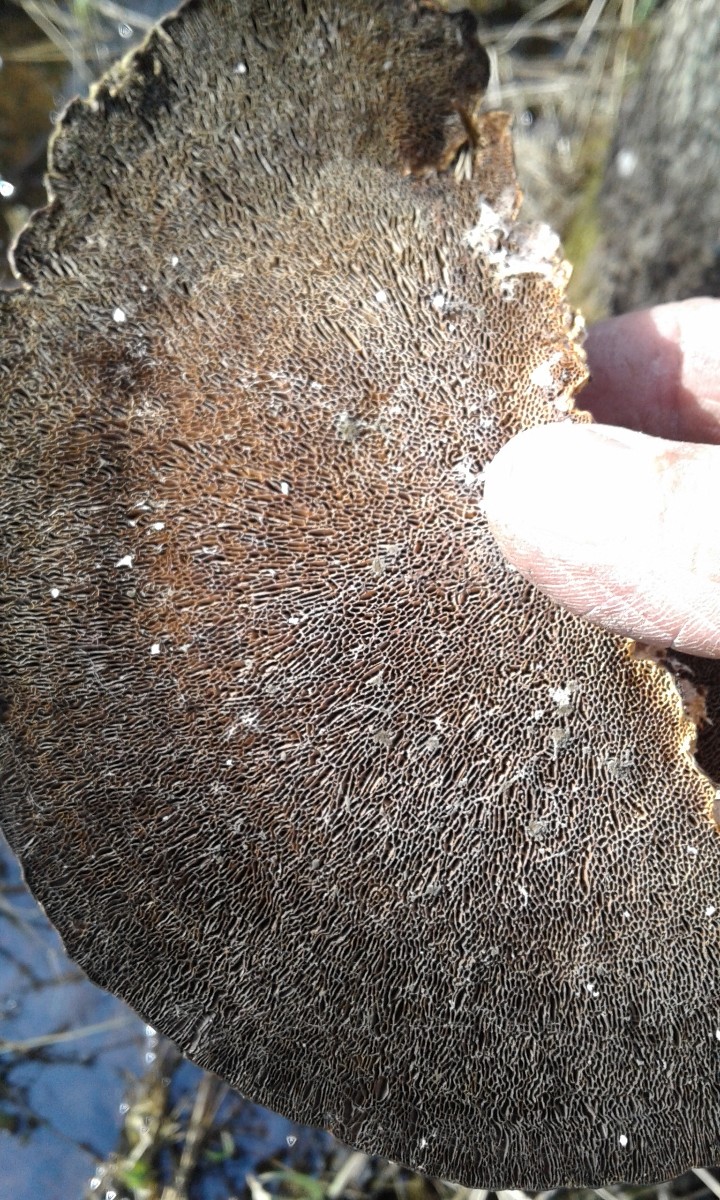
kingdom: Fungi
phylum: Basidiomycota
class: Agaricomycetes
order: Polyporales
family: Polyporaceae
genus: Daedaleopsis
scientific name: Daedaleopsis confragosa
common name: rødmende læderporesvamp
